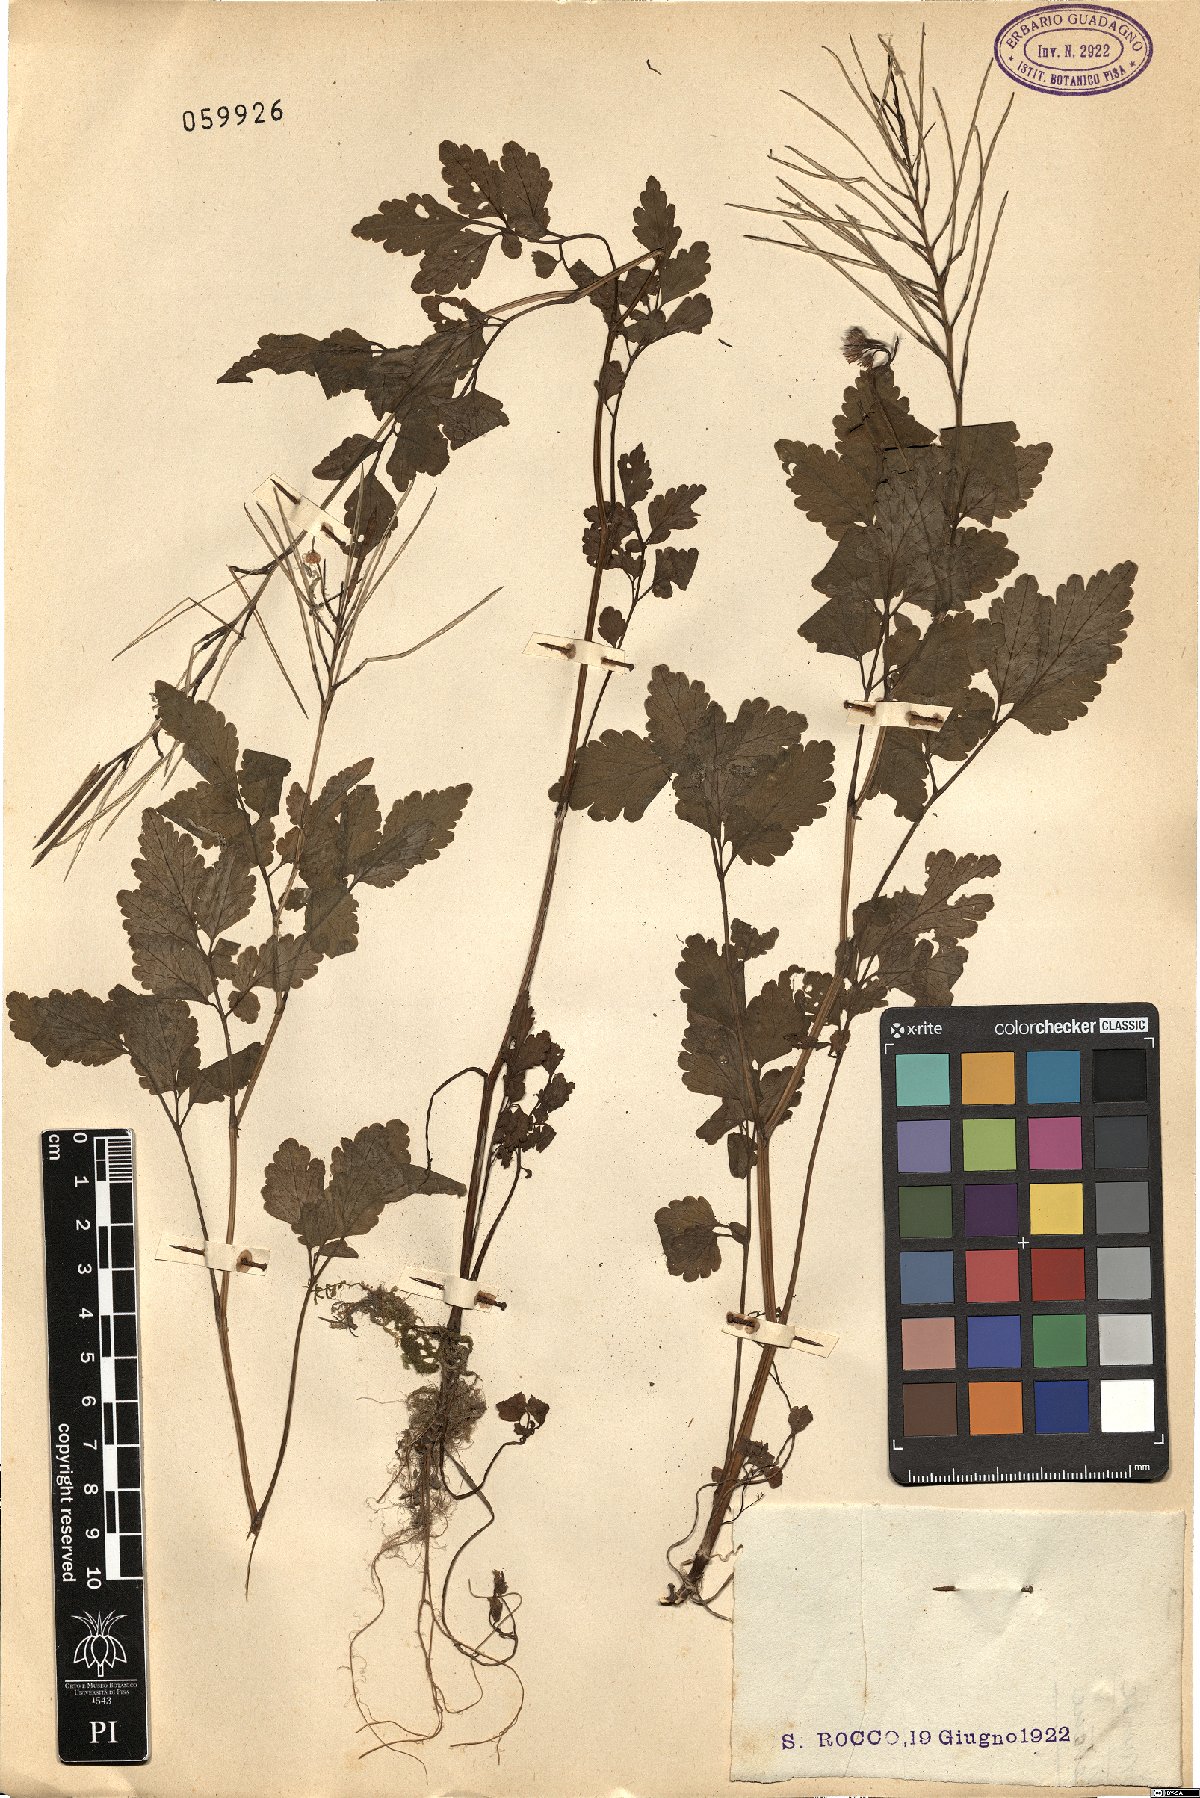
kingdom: Plantae
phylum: Tracheophyta
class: Magnoliopsida
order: Ranunculales
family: Papaveraceae
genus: Chelidonium
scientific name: Chelidonium majus
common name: Greater celandine
